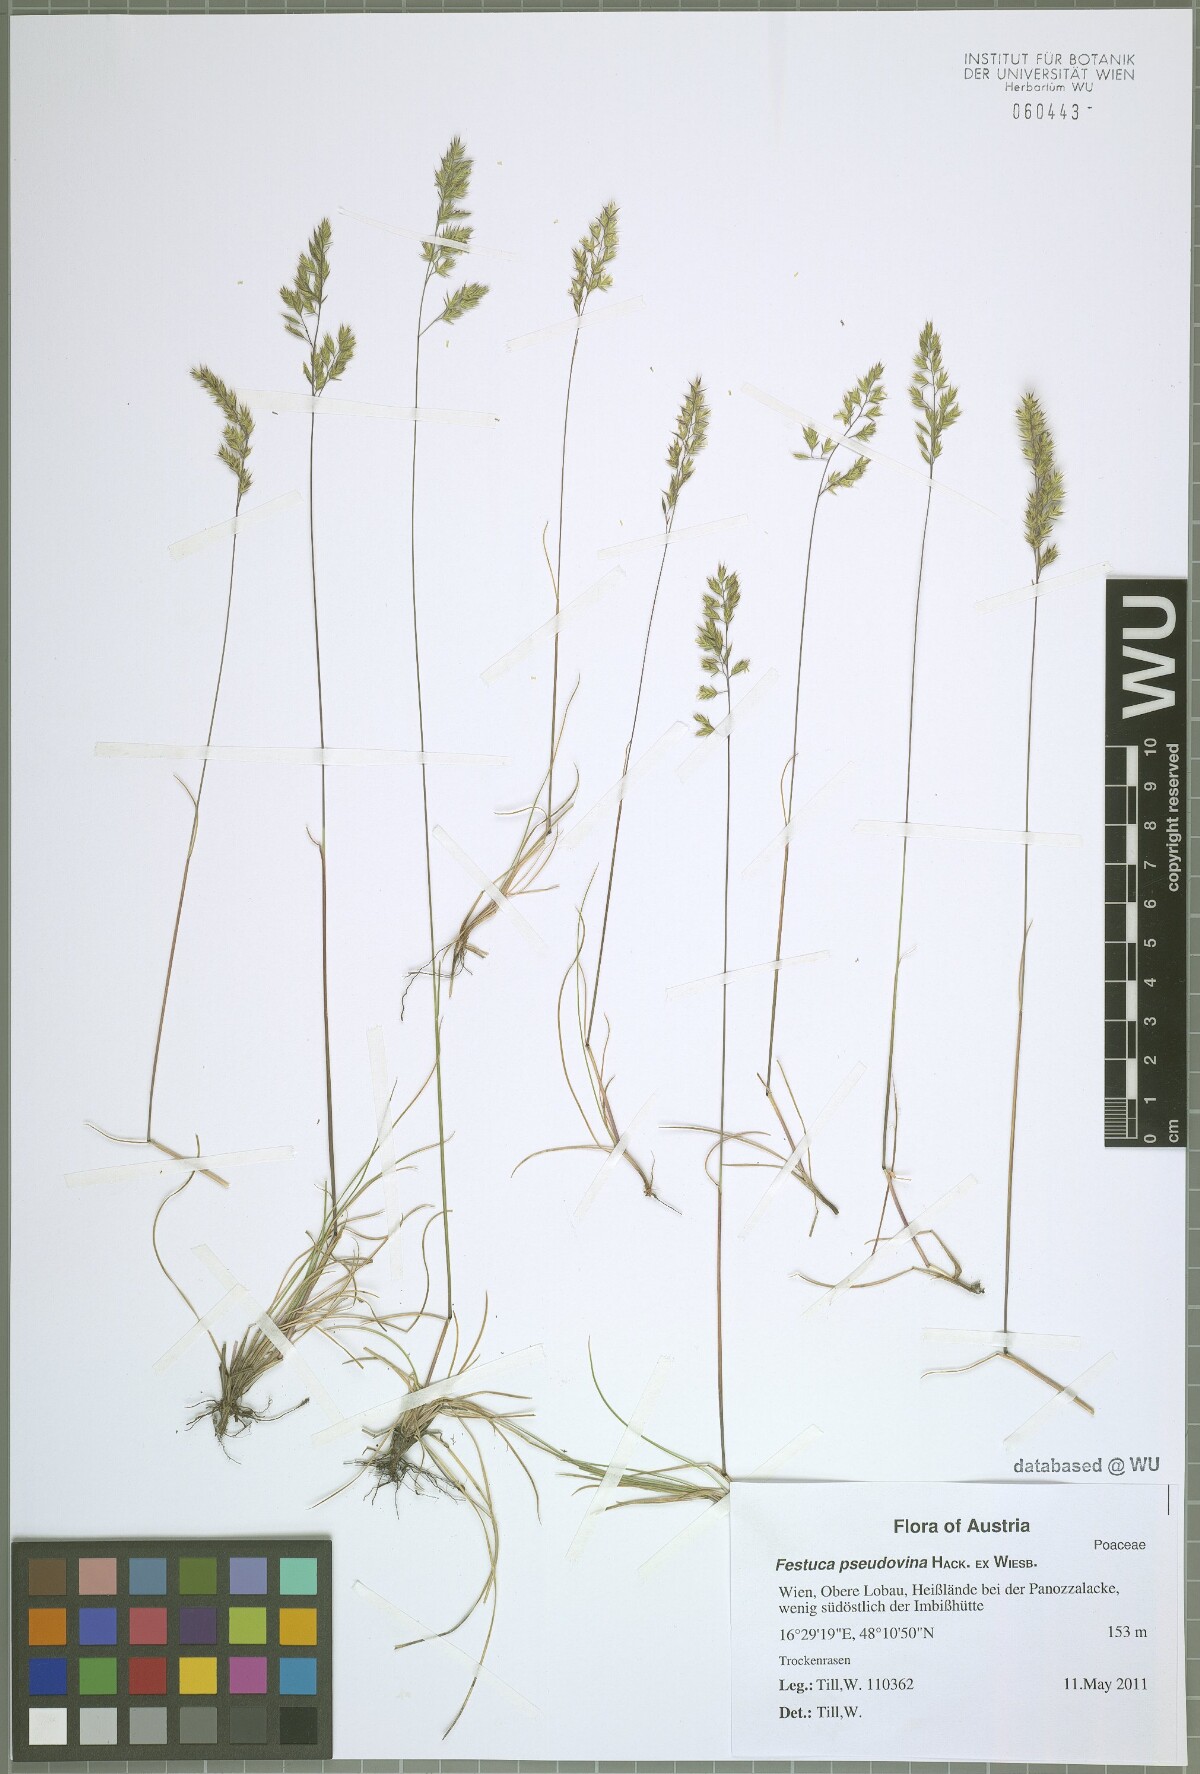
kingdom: Plantae
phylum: Tracheophyta
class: Liliopsida
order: Poales
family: Poaceae
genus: Festuca
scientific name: Festuca pulchra
